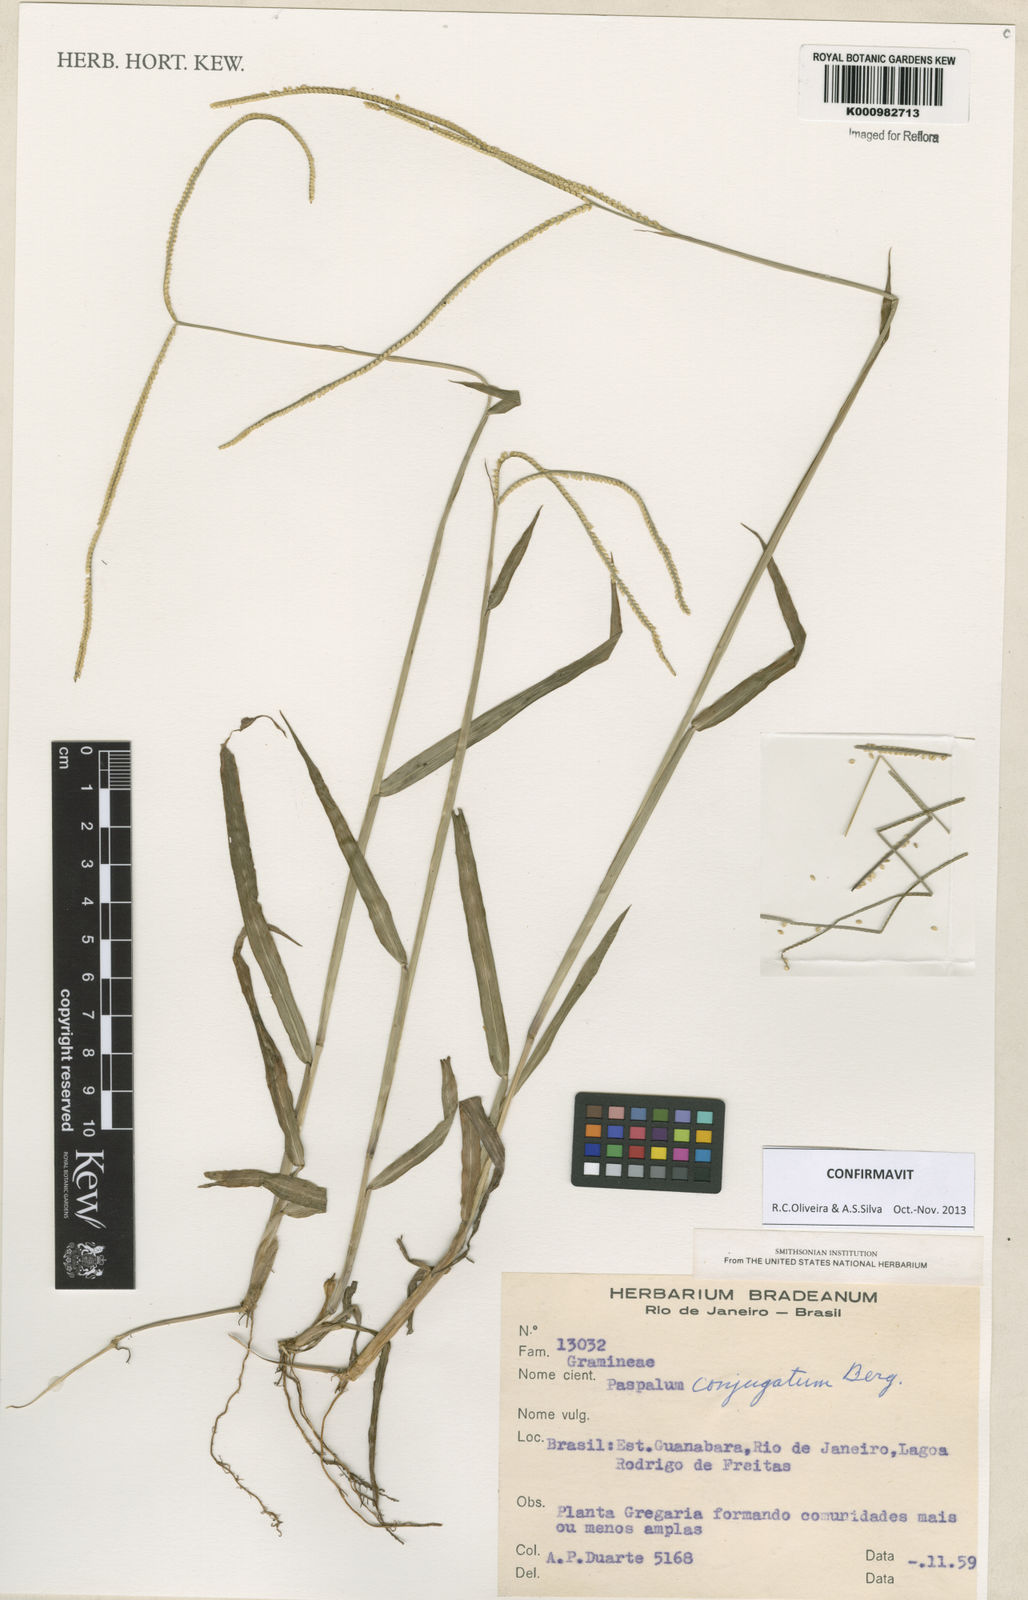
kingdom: Plantae
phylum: Tracheophyta
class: Liliopsida
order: Poales
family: Poaceae
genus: Paspalum
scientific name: Paspalum conjugatum
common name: Hilograss
